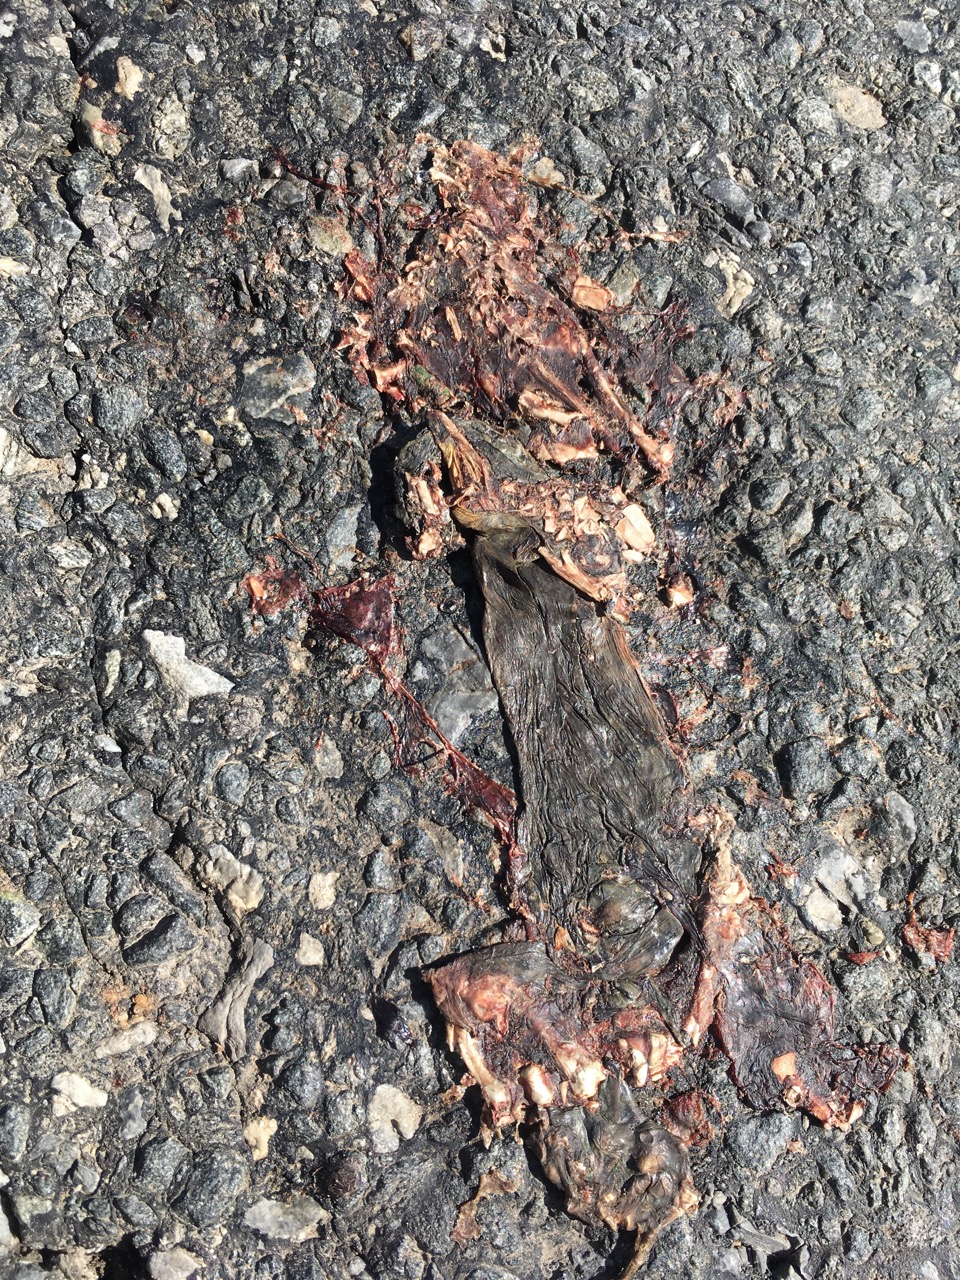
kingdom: Animalia
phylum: Chordata
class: Amphibia
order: Anura
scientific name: Anura
